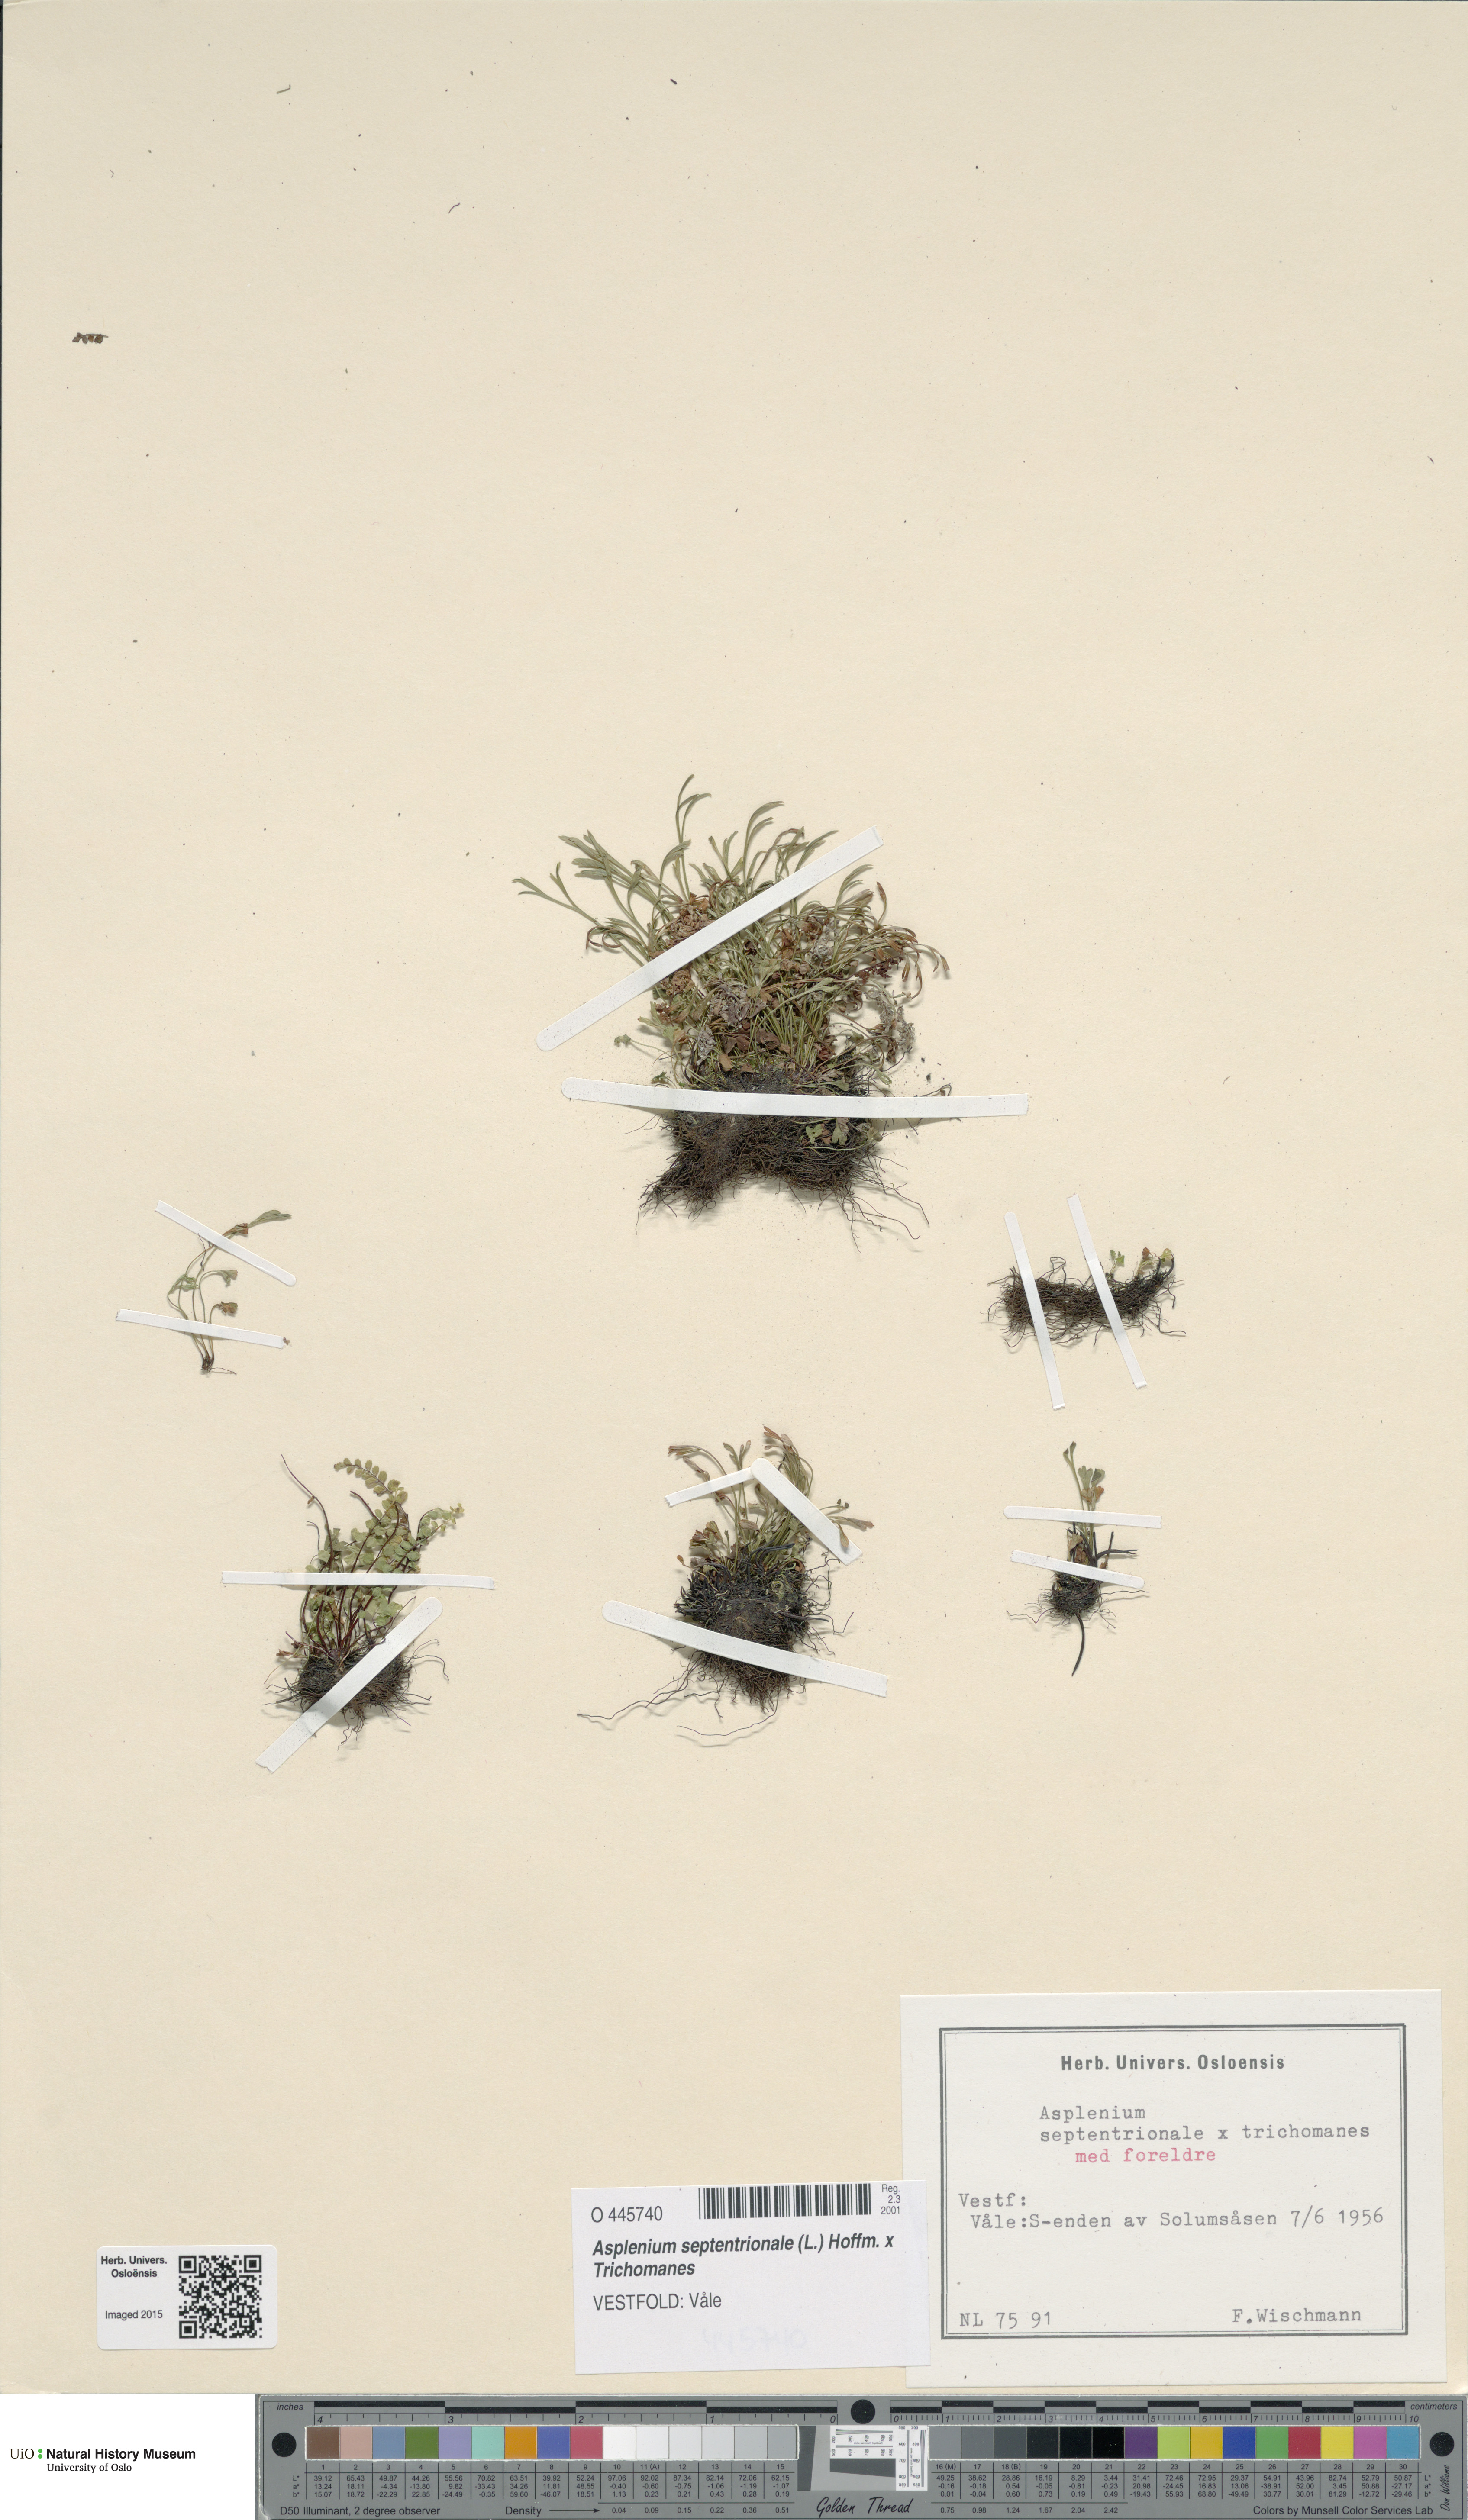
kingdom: Plantae
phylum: Tracheophyta
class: Polypodiopsida
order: Polypodiales
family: Aspleniaceae
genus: Asplenium
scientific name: Asplenium
